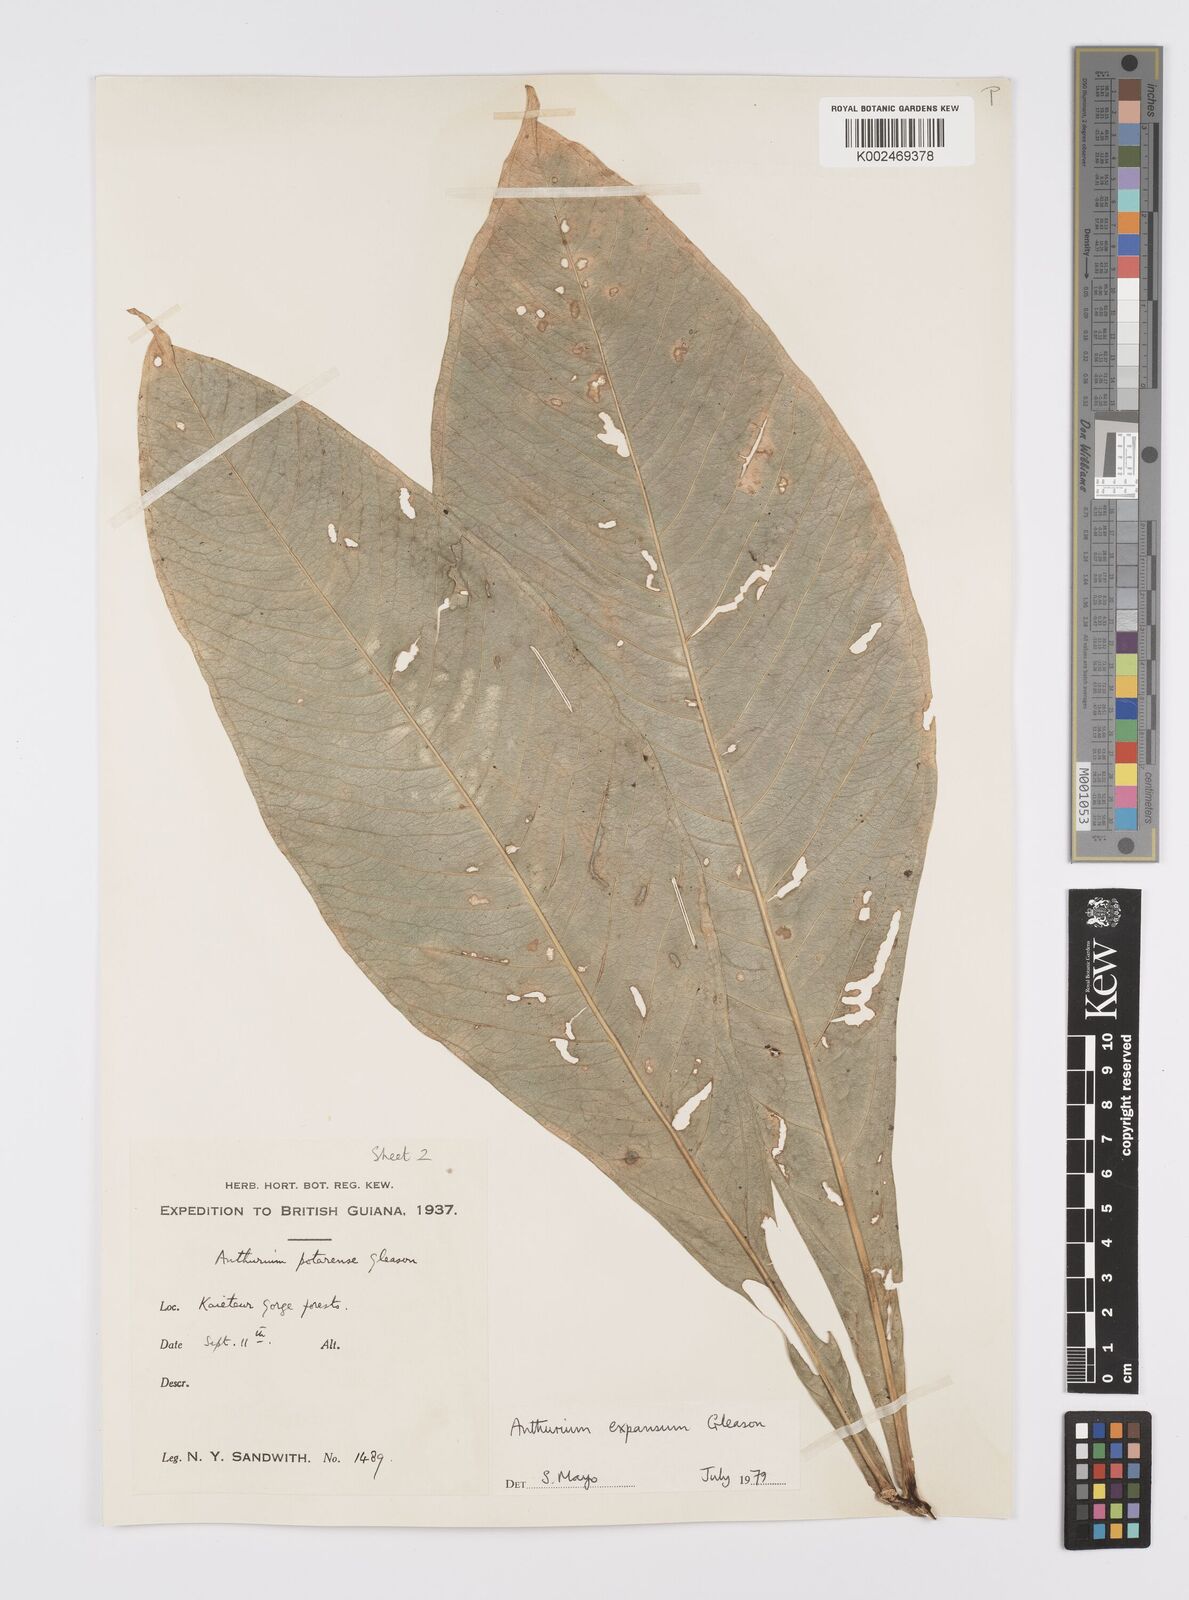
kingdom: Plantae
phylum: Tracheophyta
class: Liliopsida
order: Alismatales
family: Araceae
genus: Anthurium
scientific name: Anthurium expansum
